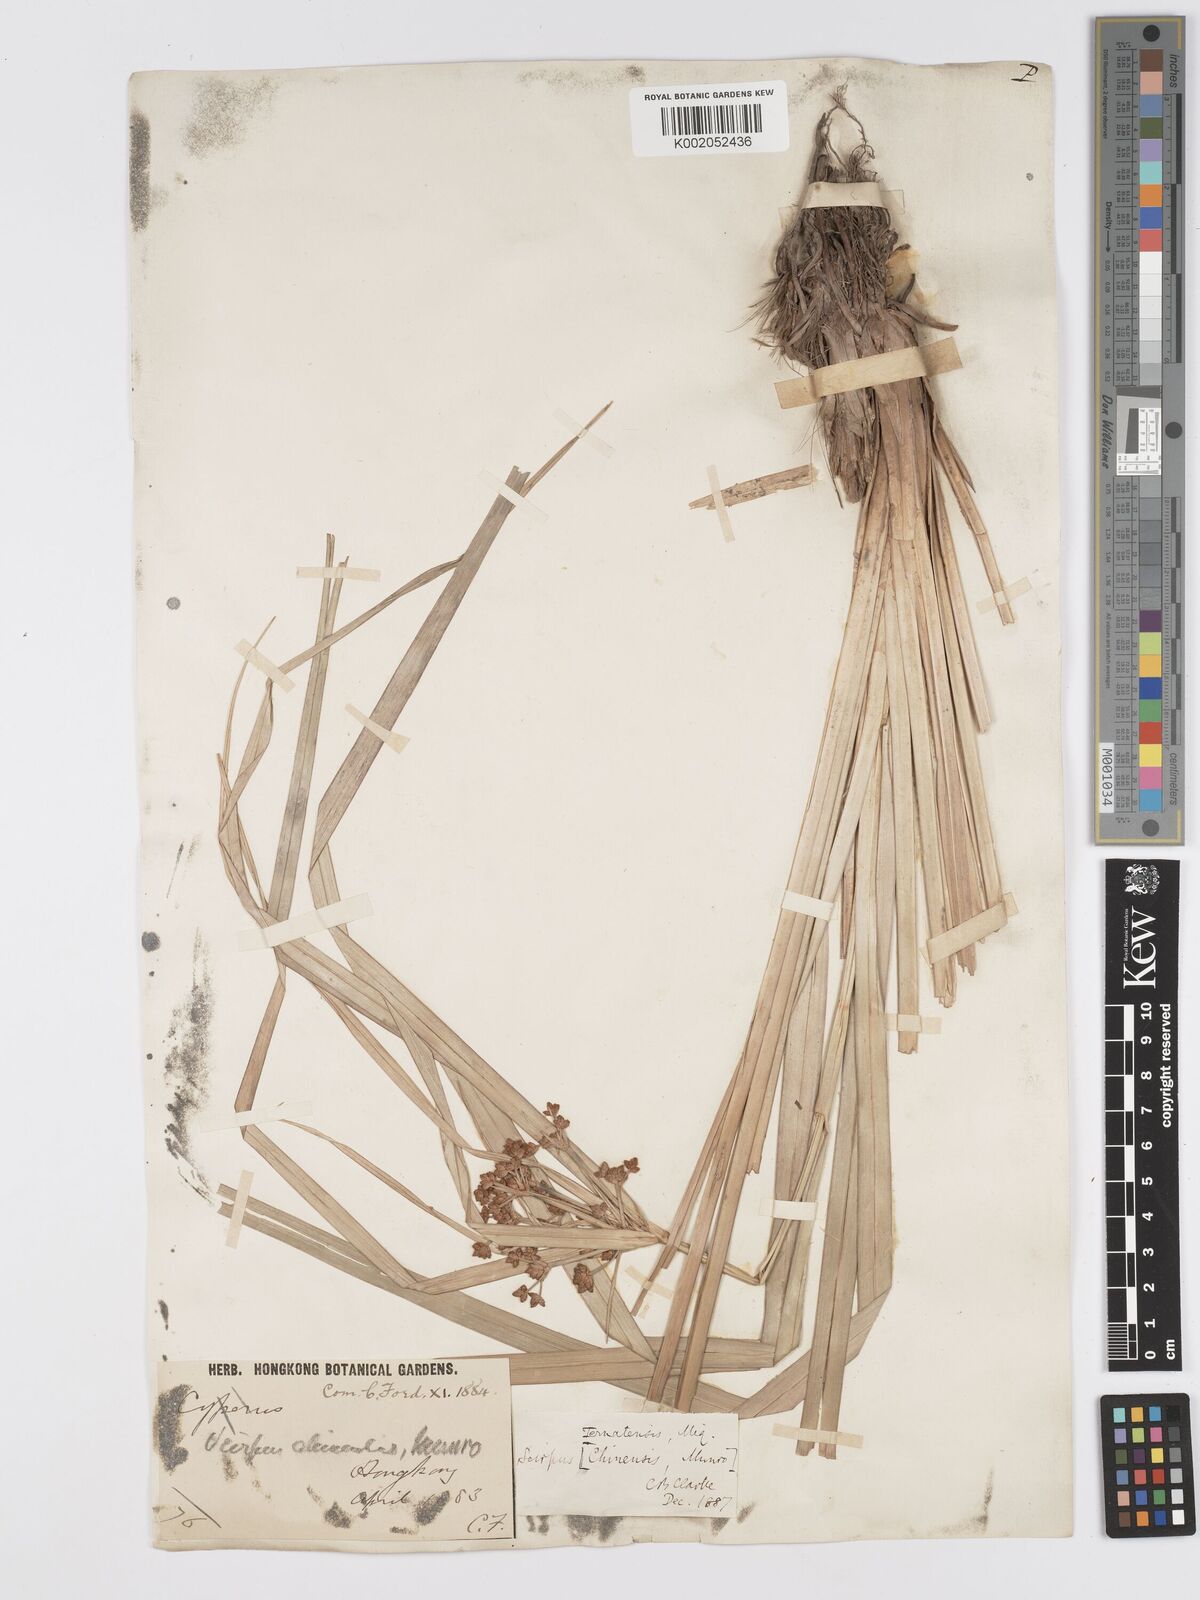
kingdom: Plantae
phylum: Tracheophyta
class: Liliopsida
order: Poales
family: Cyperaceae
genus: Scirpus
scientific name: Scirpus ternatanus
